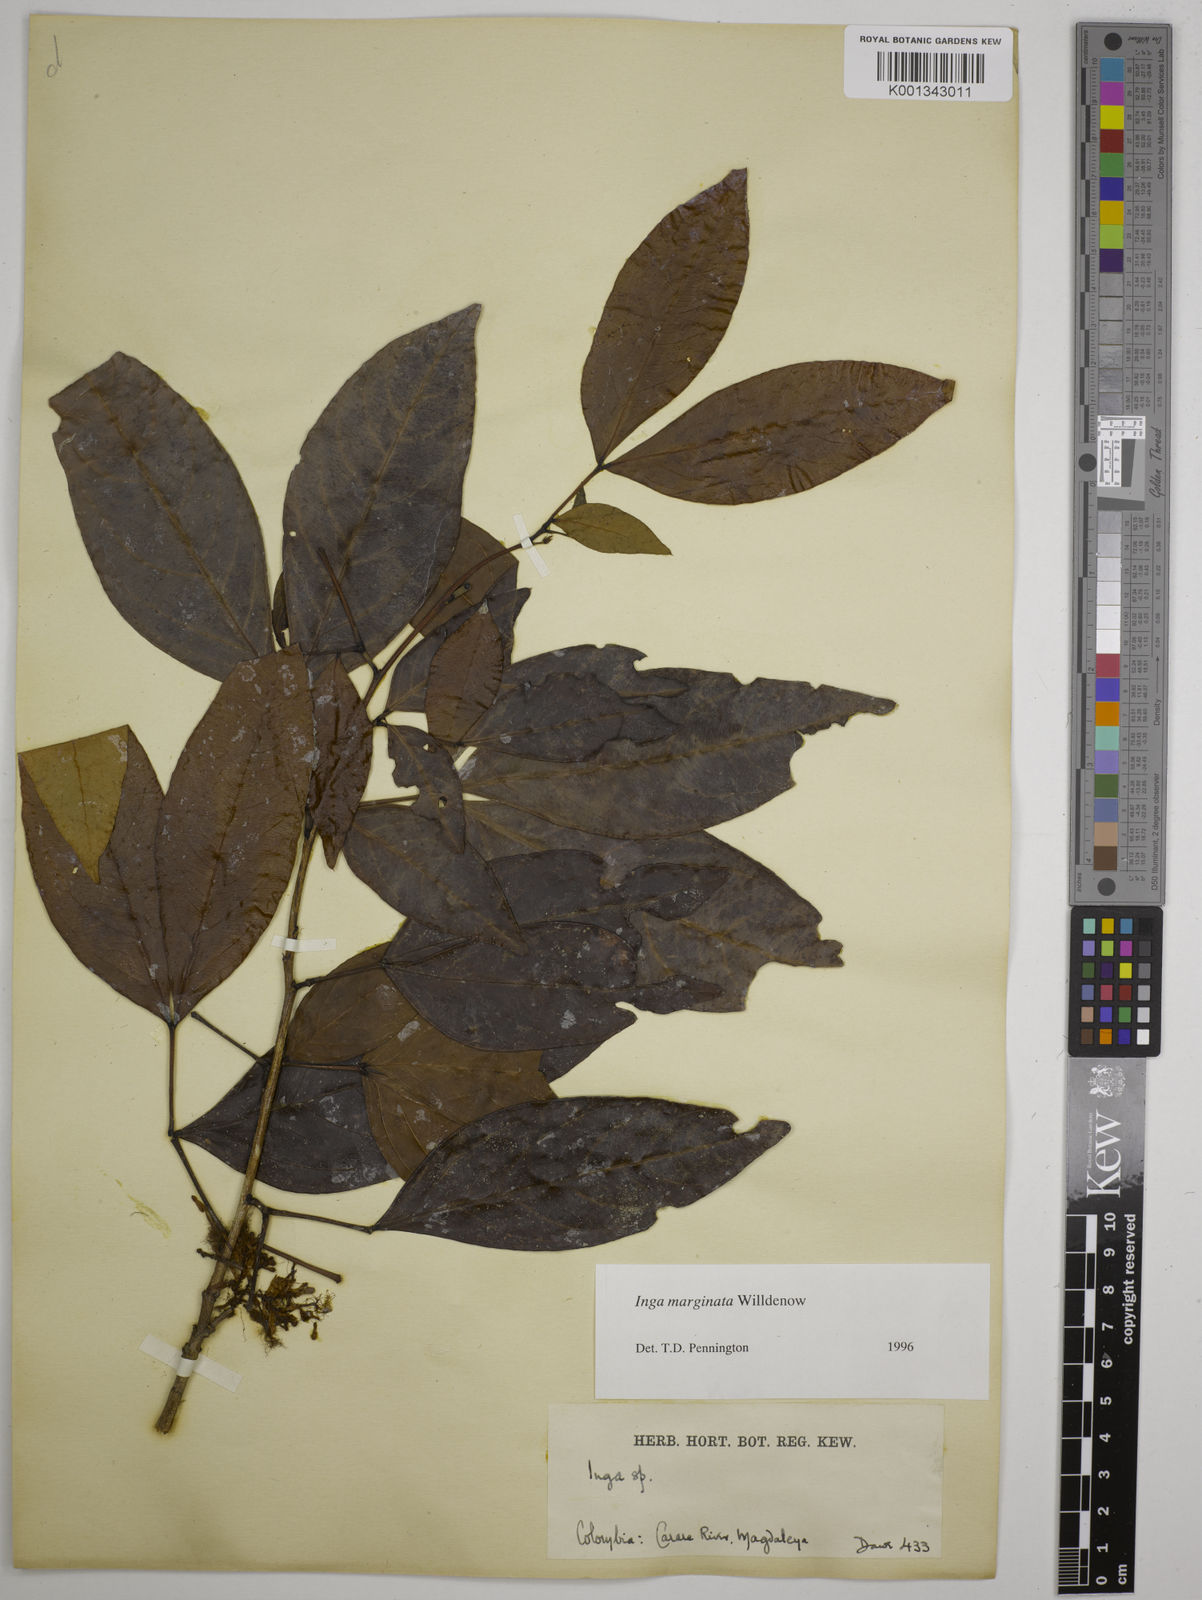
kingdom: Plantae
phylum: Tracheophyta
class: Magnoliopsida
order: Fabales
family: Fabaceae
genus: Inga
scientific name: Inga marginata
